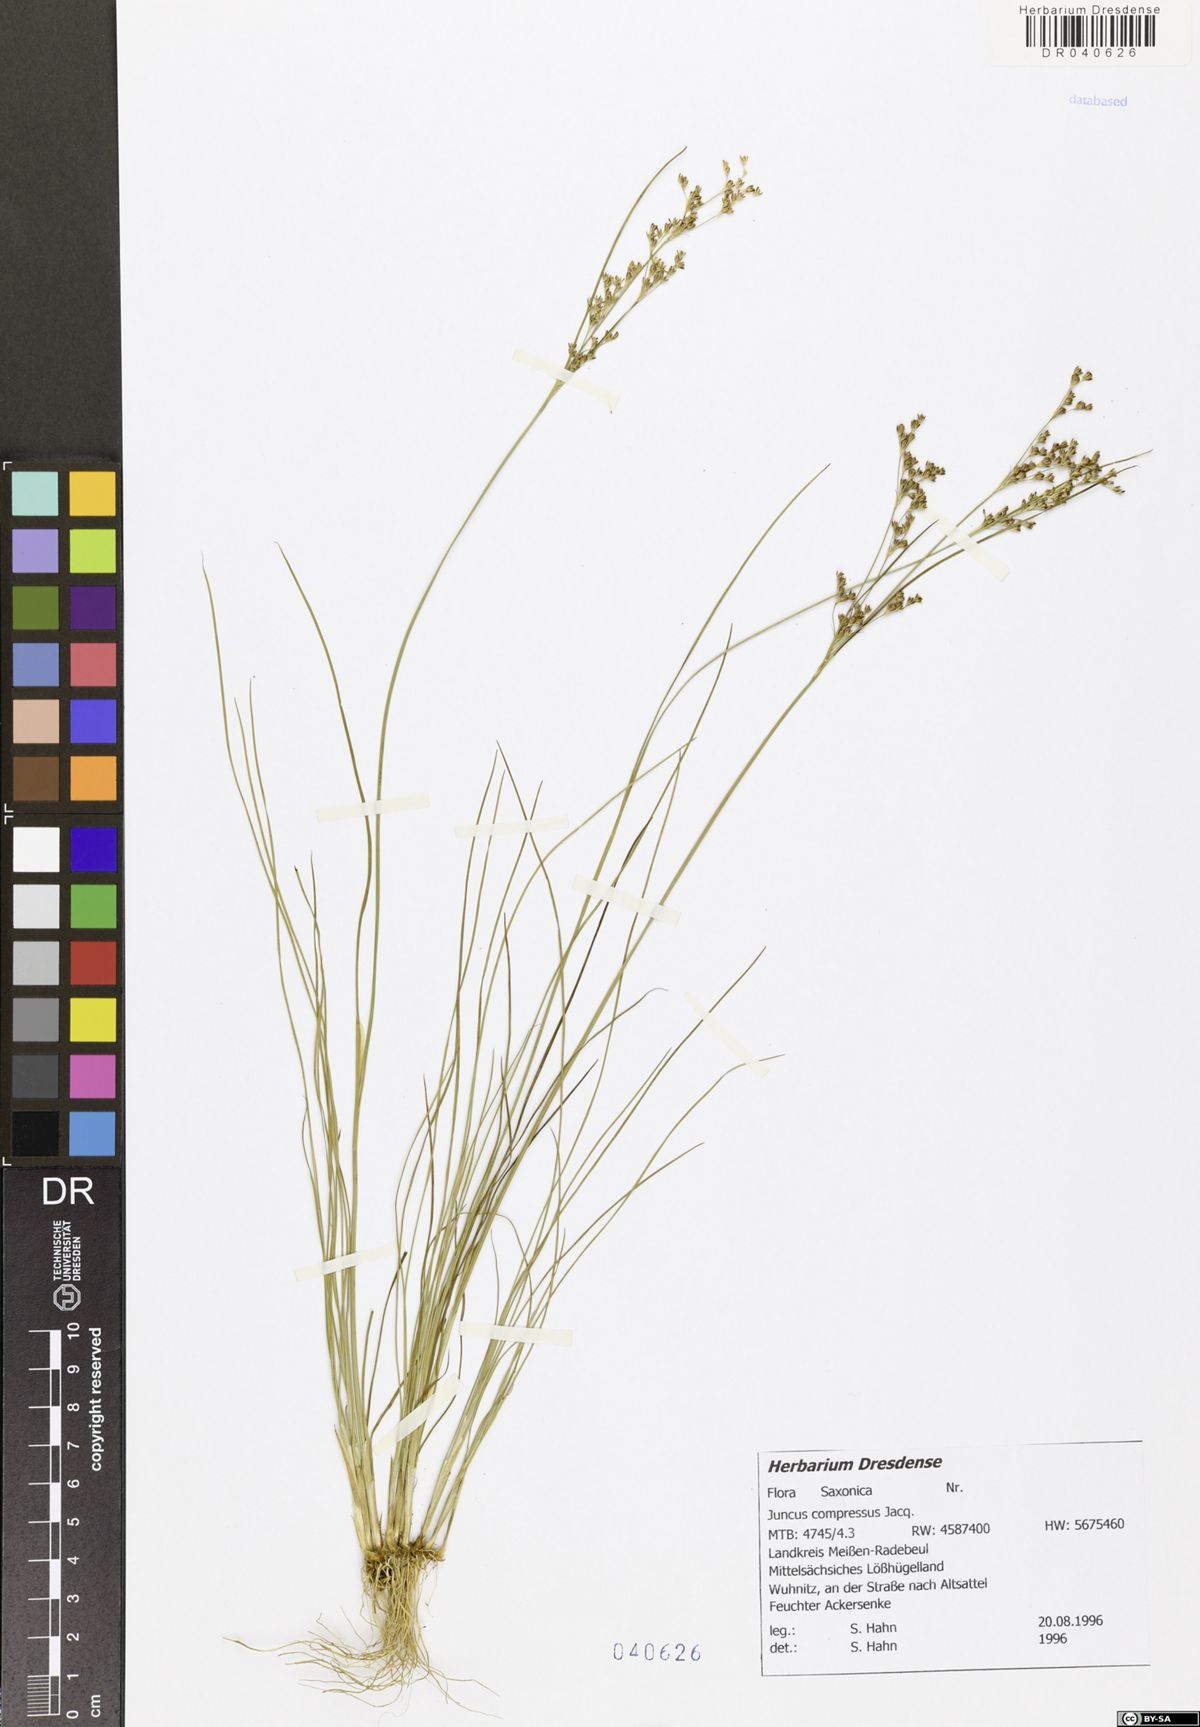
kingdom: Plantae
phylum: Tracheophyta
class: Liliopsida
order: Poales
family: Juncaceae
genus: Juncus
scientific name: Juncus compressus
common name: Round-fruited rush
